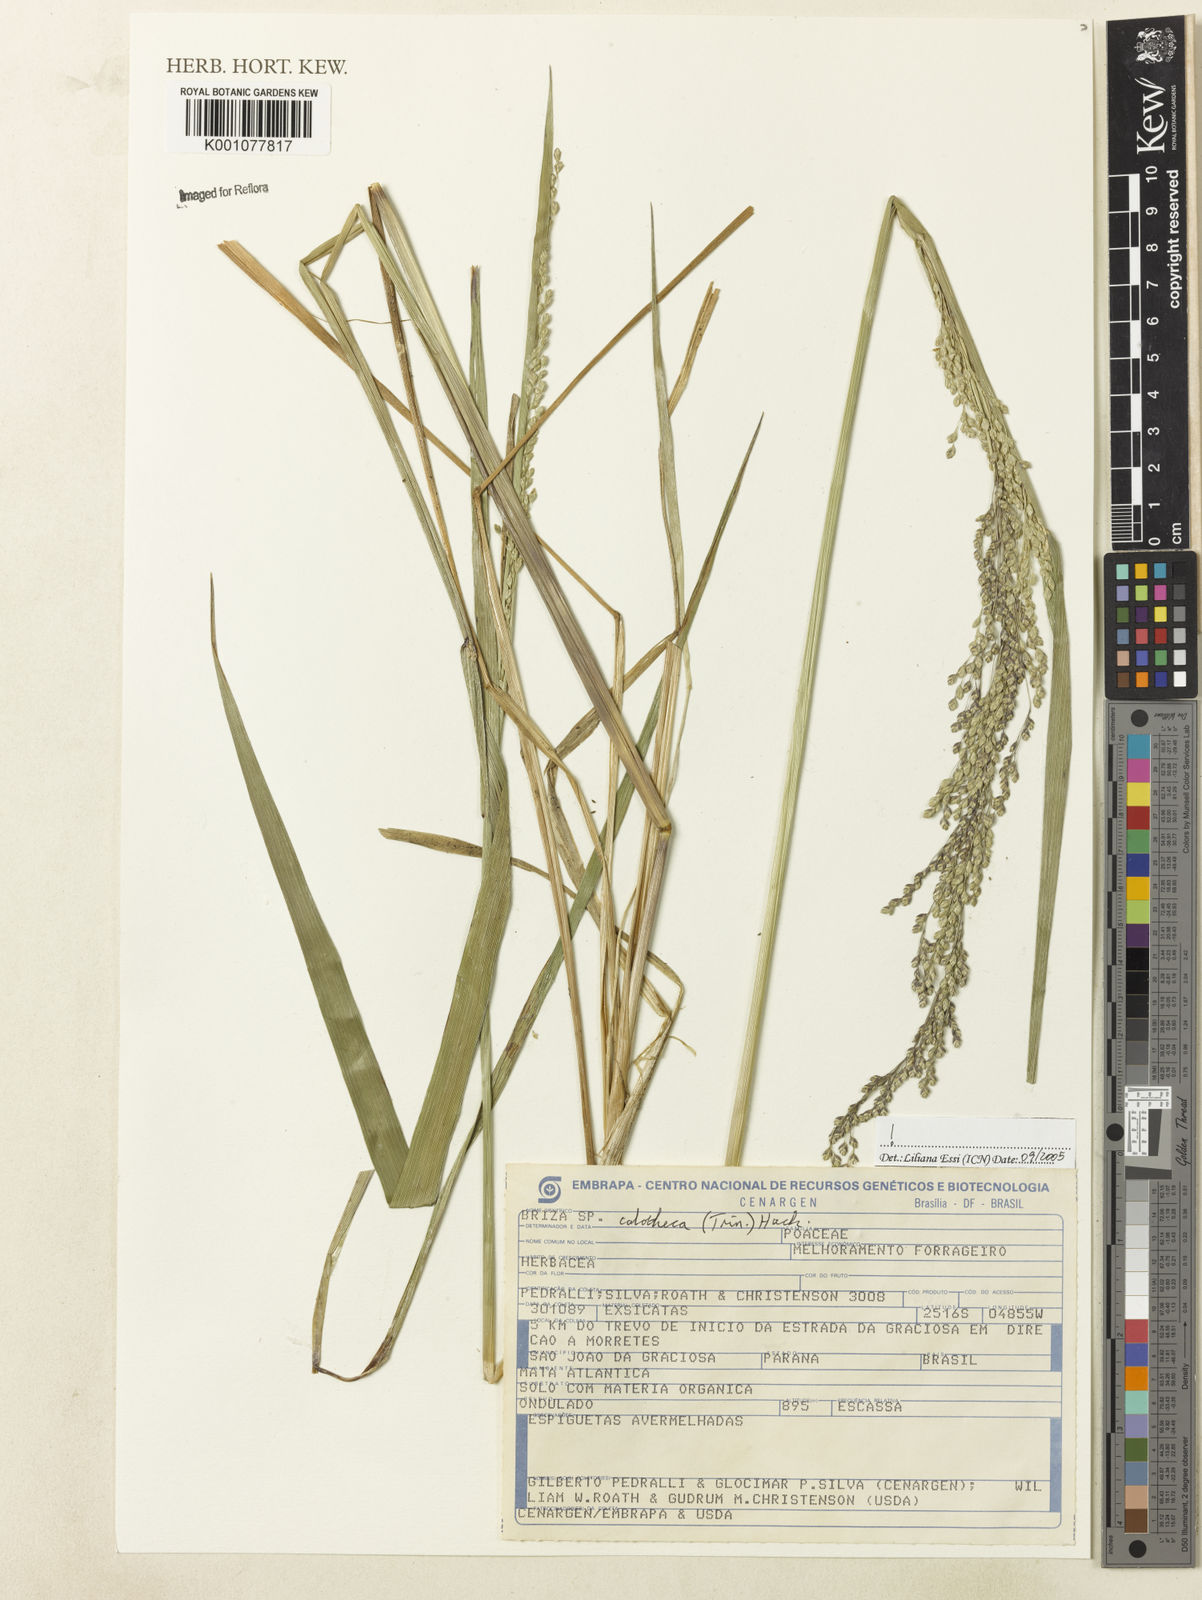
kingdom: Plantae
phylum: Tracheophyta
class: Liliopsida
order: Poales
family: Poaceae
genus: Poidium
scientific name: Poidium calotheca
